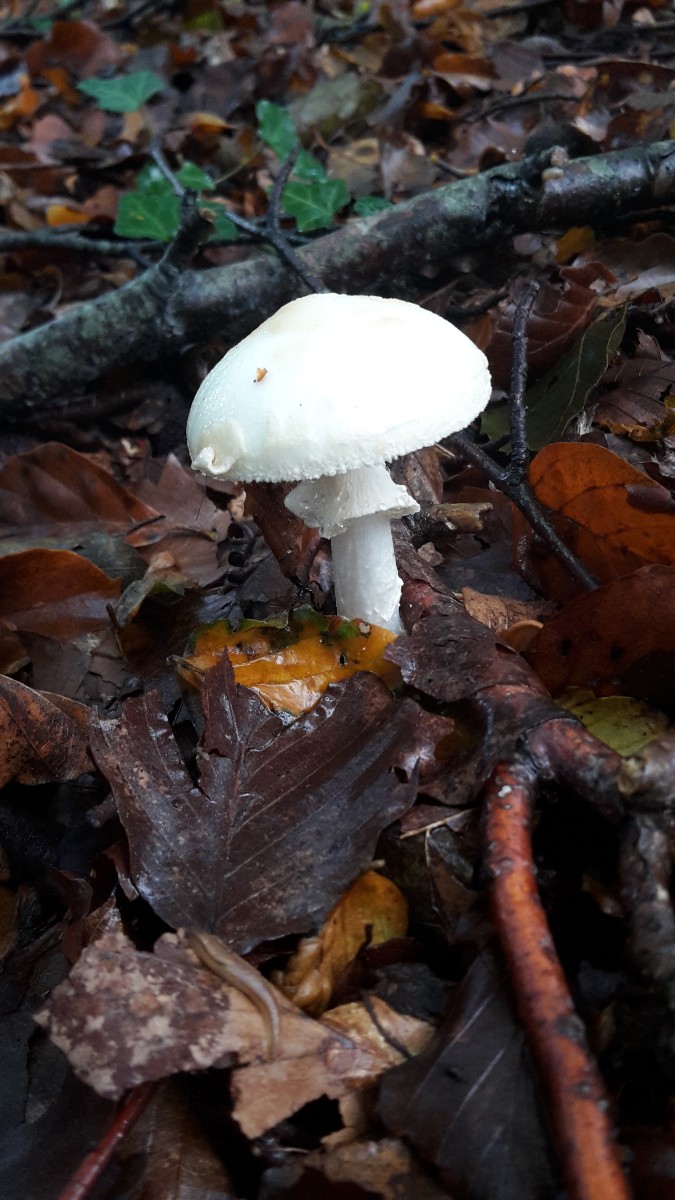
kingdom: Fungi
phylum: Basidiomycota
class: Agaricomycetes
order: Agaricales
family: Amanitaceae
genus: Amanita
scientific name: Amanita citrina
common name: kugleknoldet fluesvamp
